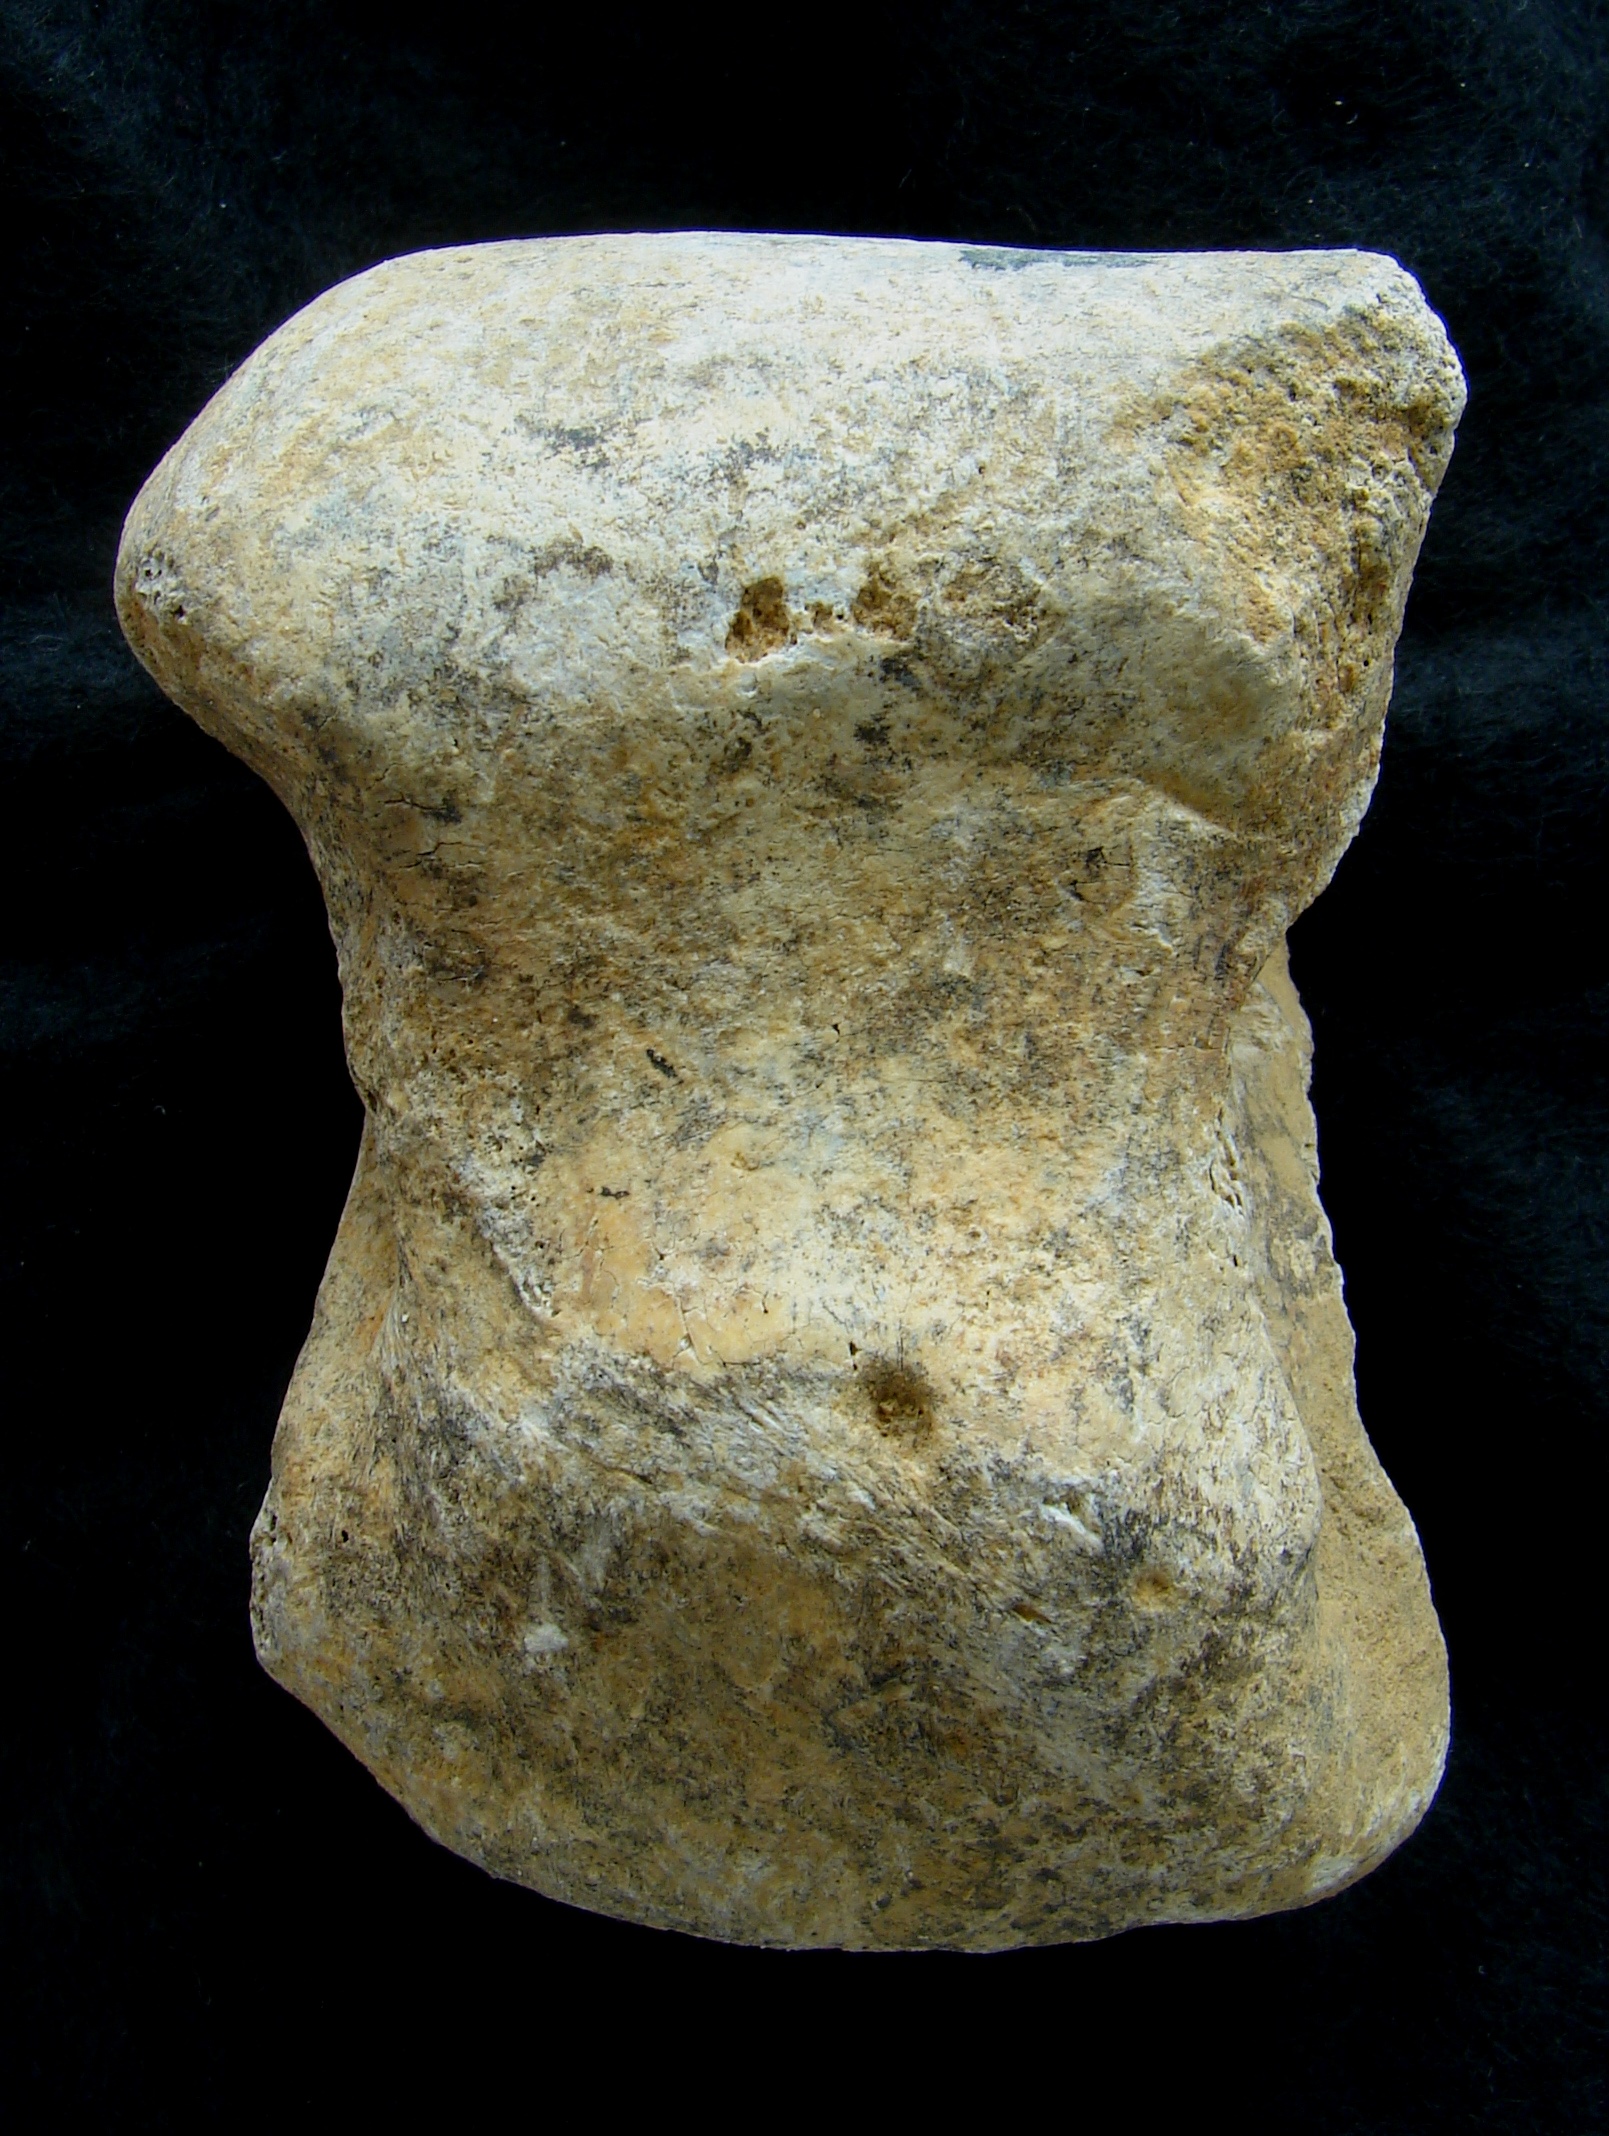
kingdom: Animalia
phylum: Chordata
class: Mammalia
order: Artiodactyla
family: Bovidae
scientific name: Bovidae
